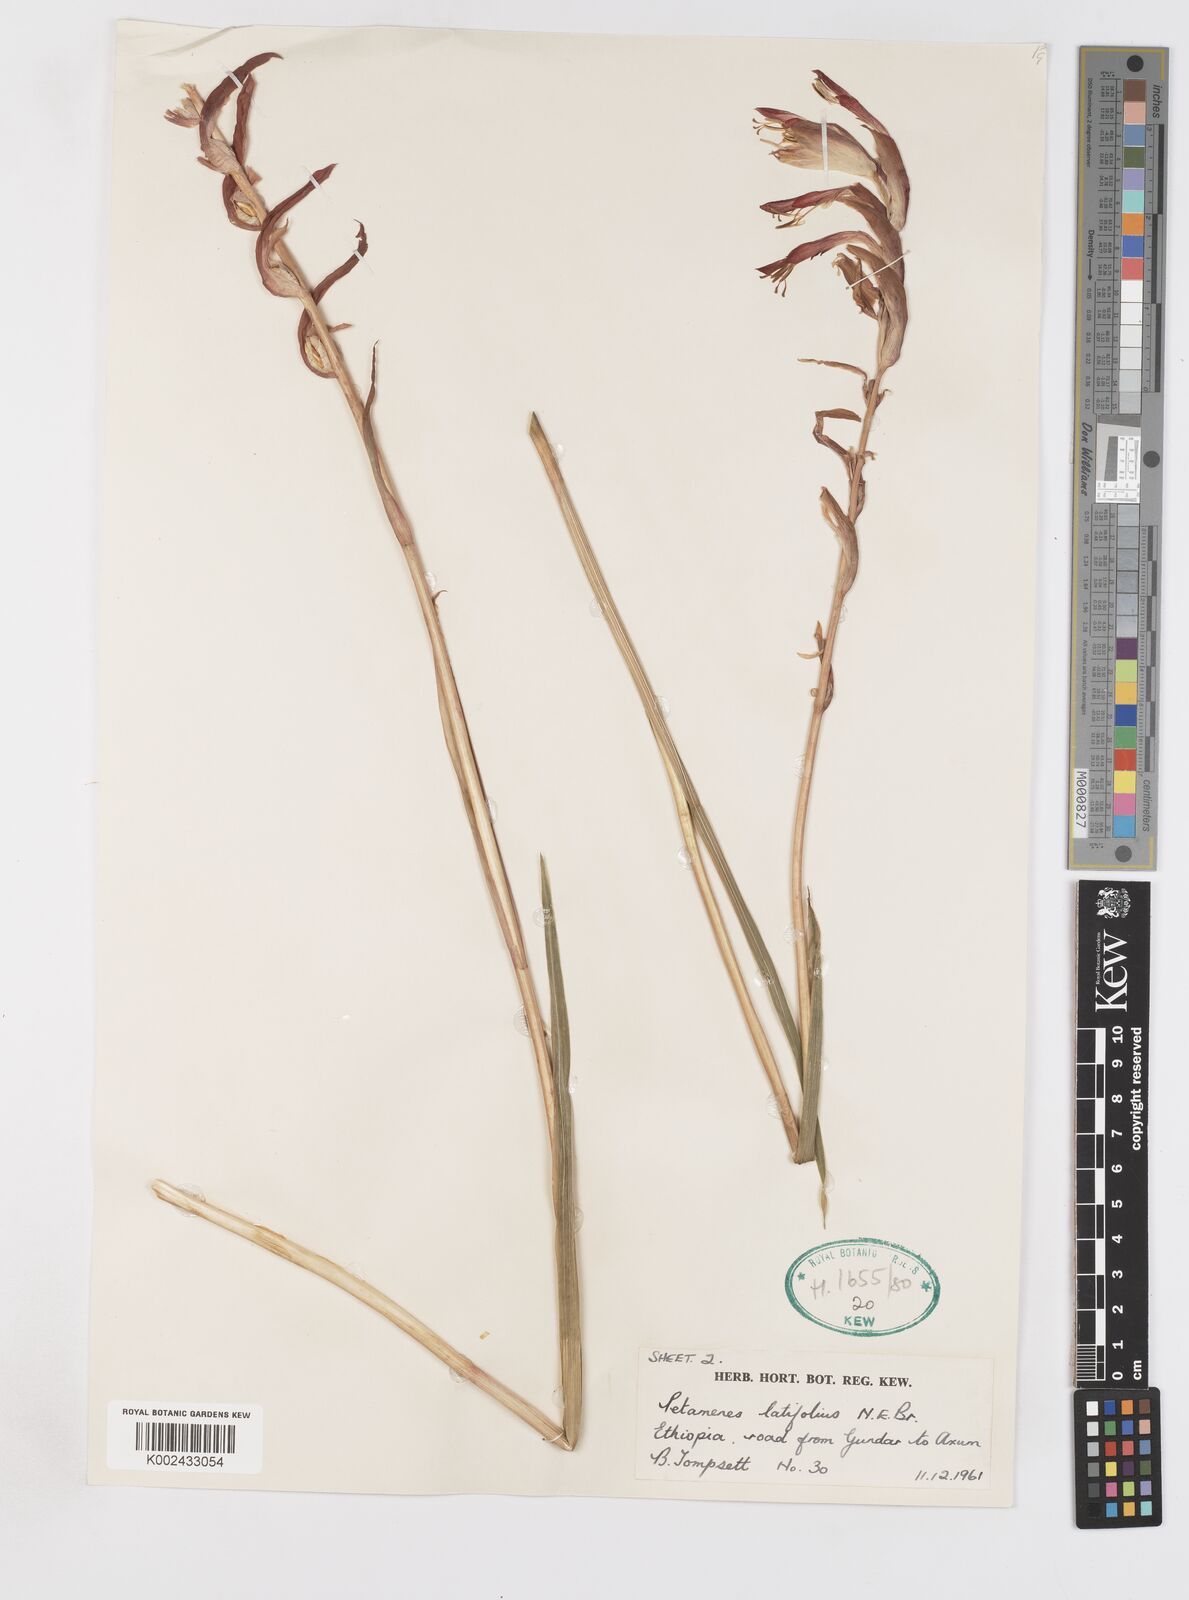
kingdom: Plantae
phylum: Tracheophyta
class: Liliopsida
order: Asparagales
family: Iridaceae
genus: Gladiolus
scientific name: Gladiolus abyssinicus
